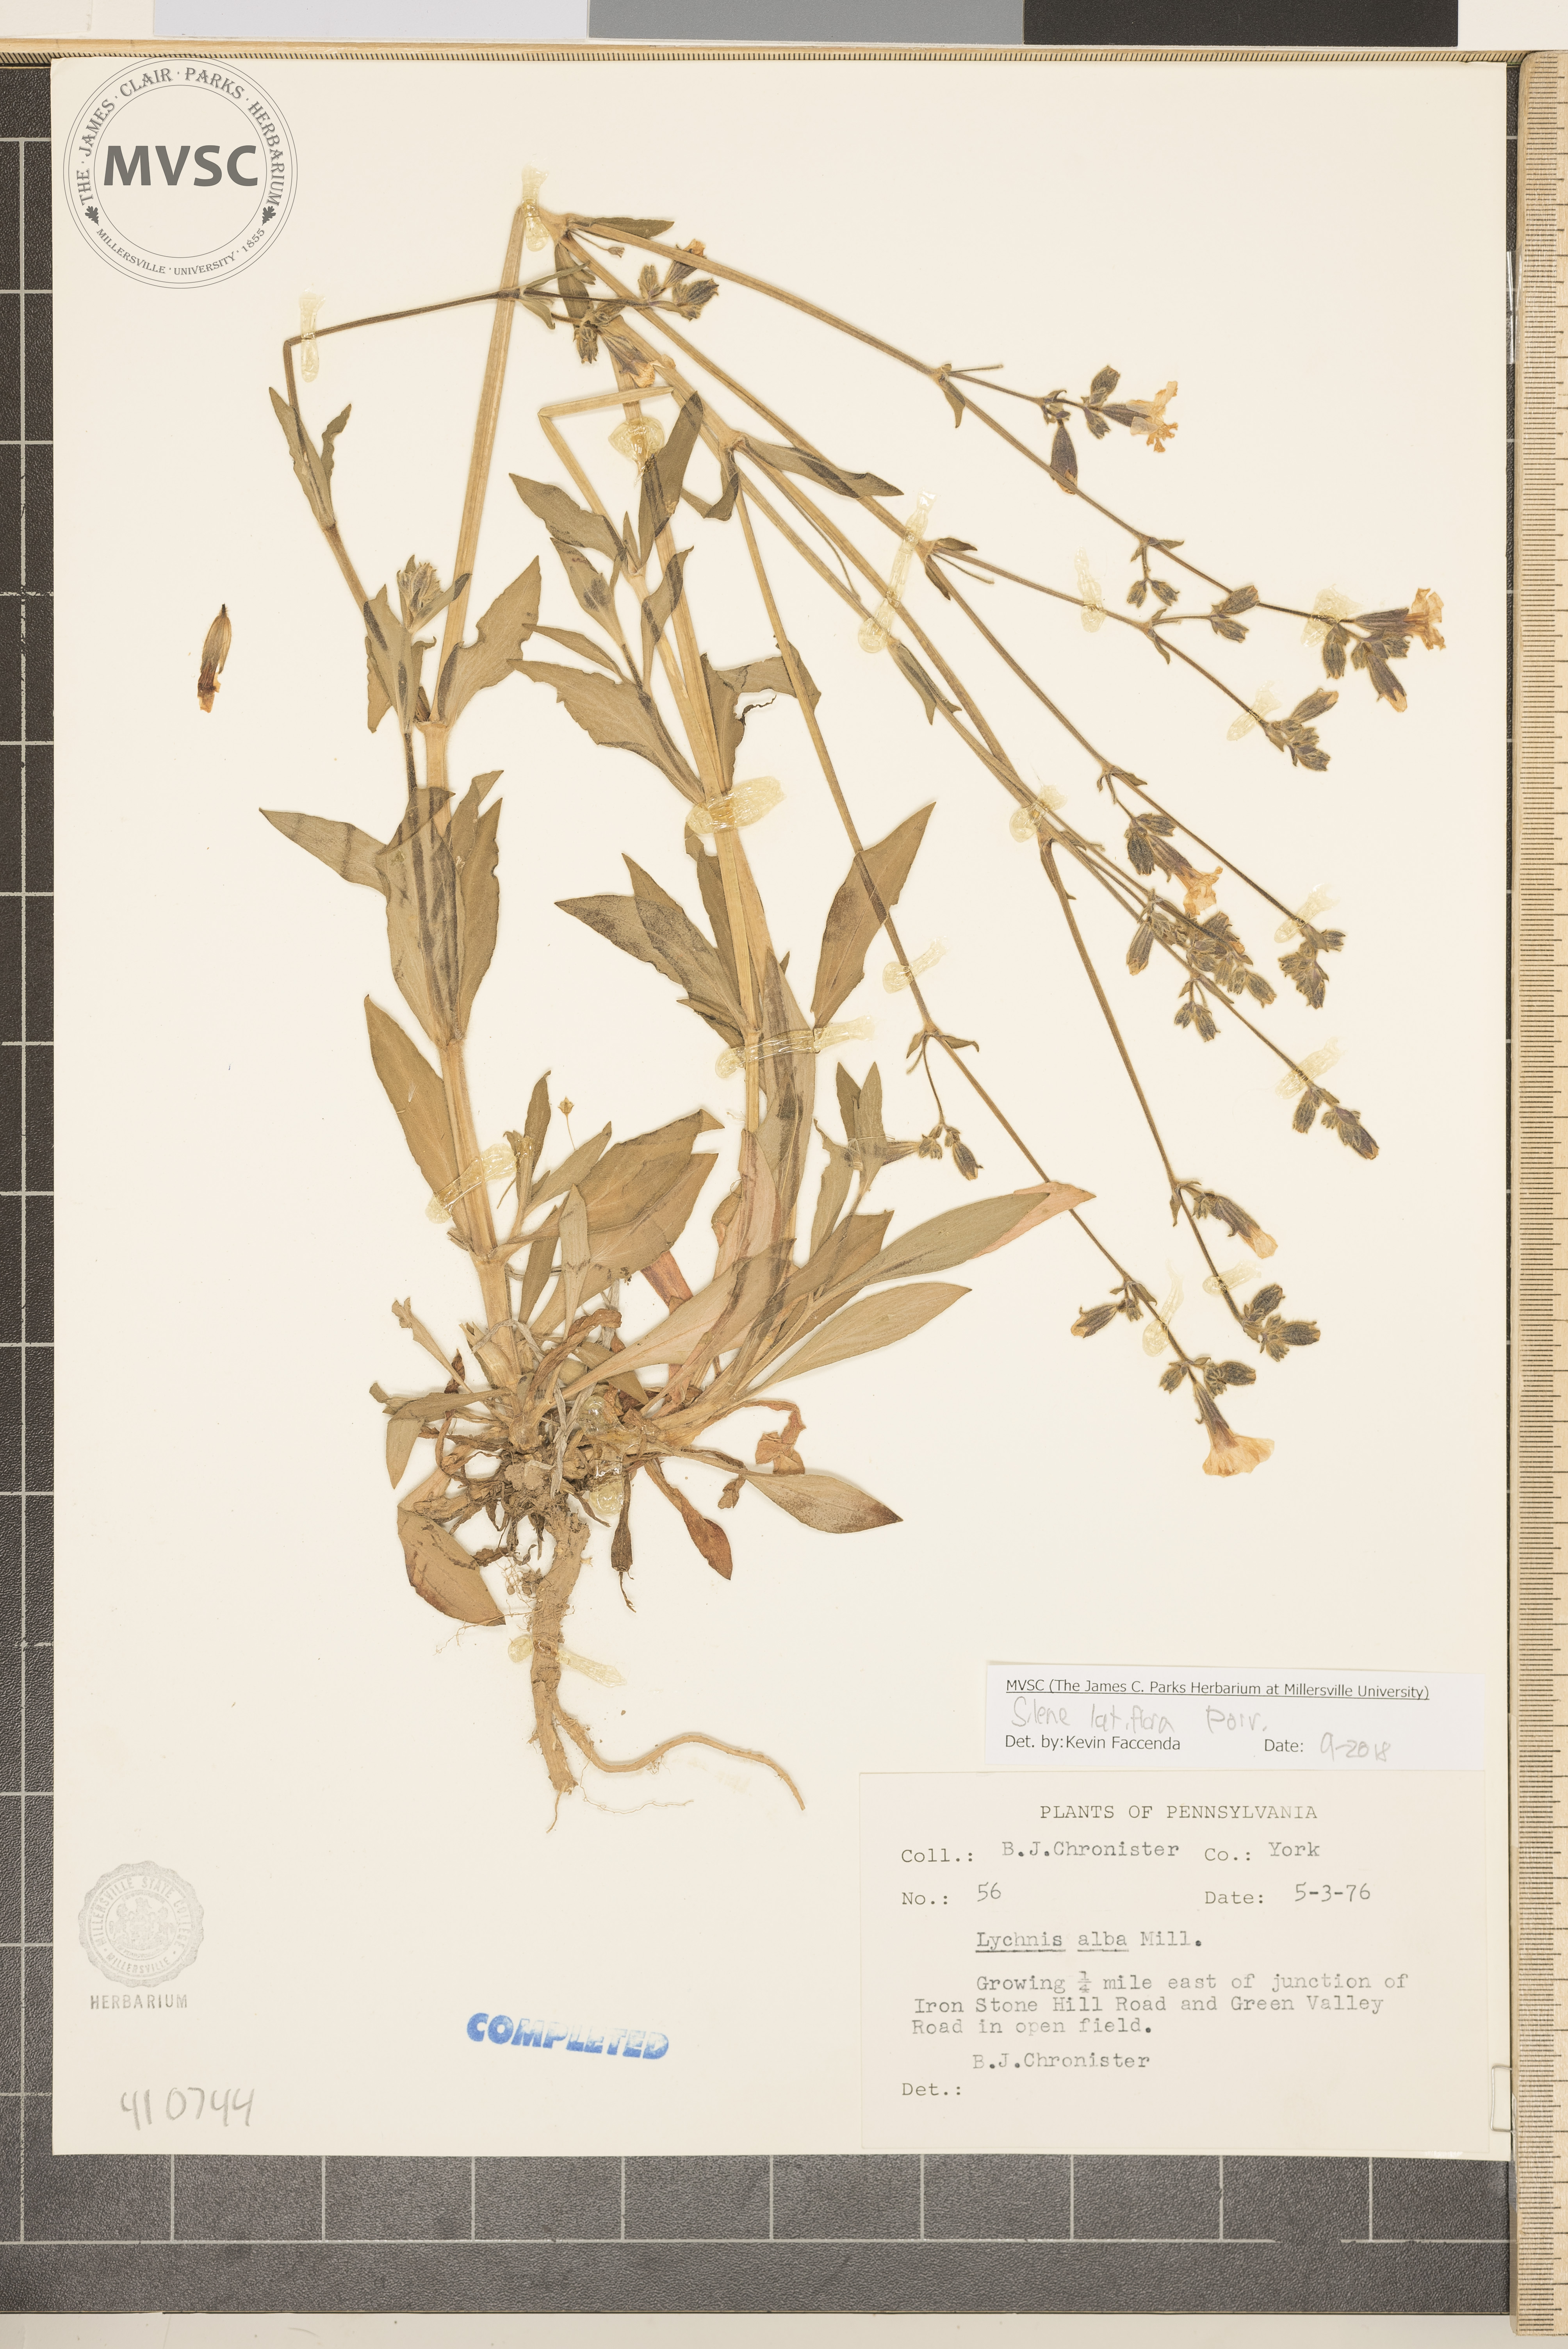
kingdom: Plantae
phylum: Tracheophyta
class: Magnoliopsida
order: Caryophyllales
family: Caryophyllaceae
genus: Silene
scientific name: Silene latifolia
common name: White campion
